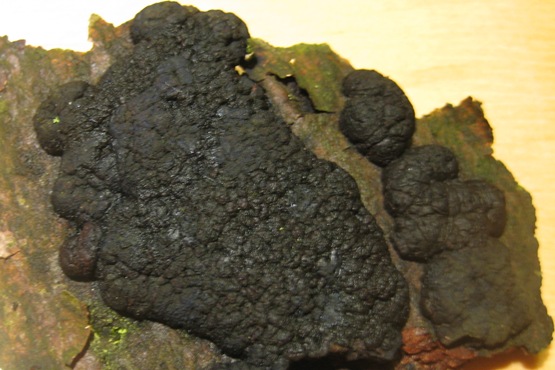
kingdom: Fungi
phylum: Ascomycota
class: Sordariomycetes
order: Xylariales
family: Hypoxylaceae
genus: Jackrogersella
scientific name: Jackrogersella multiformis
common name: foranderlig kulbær
